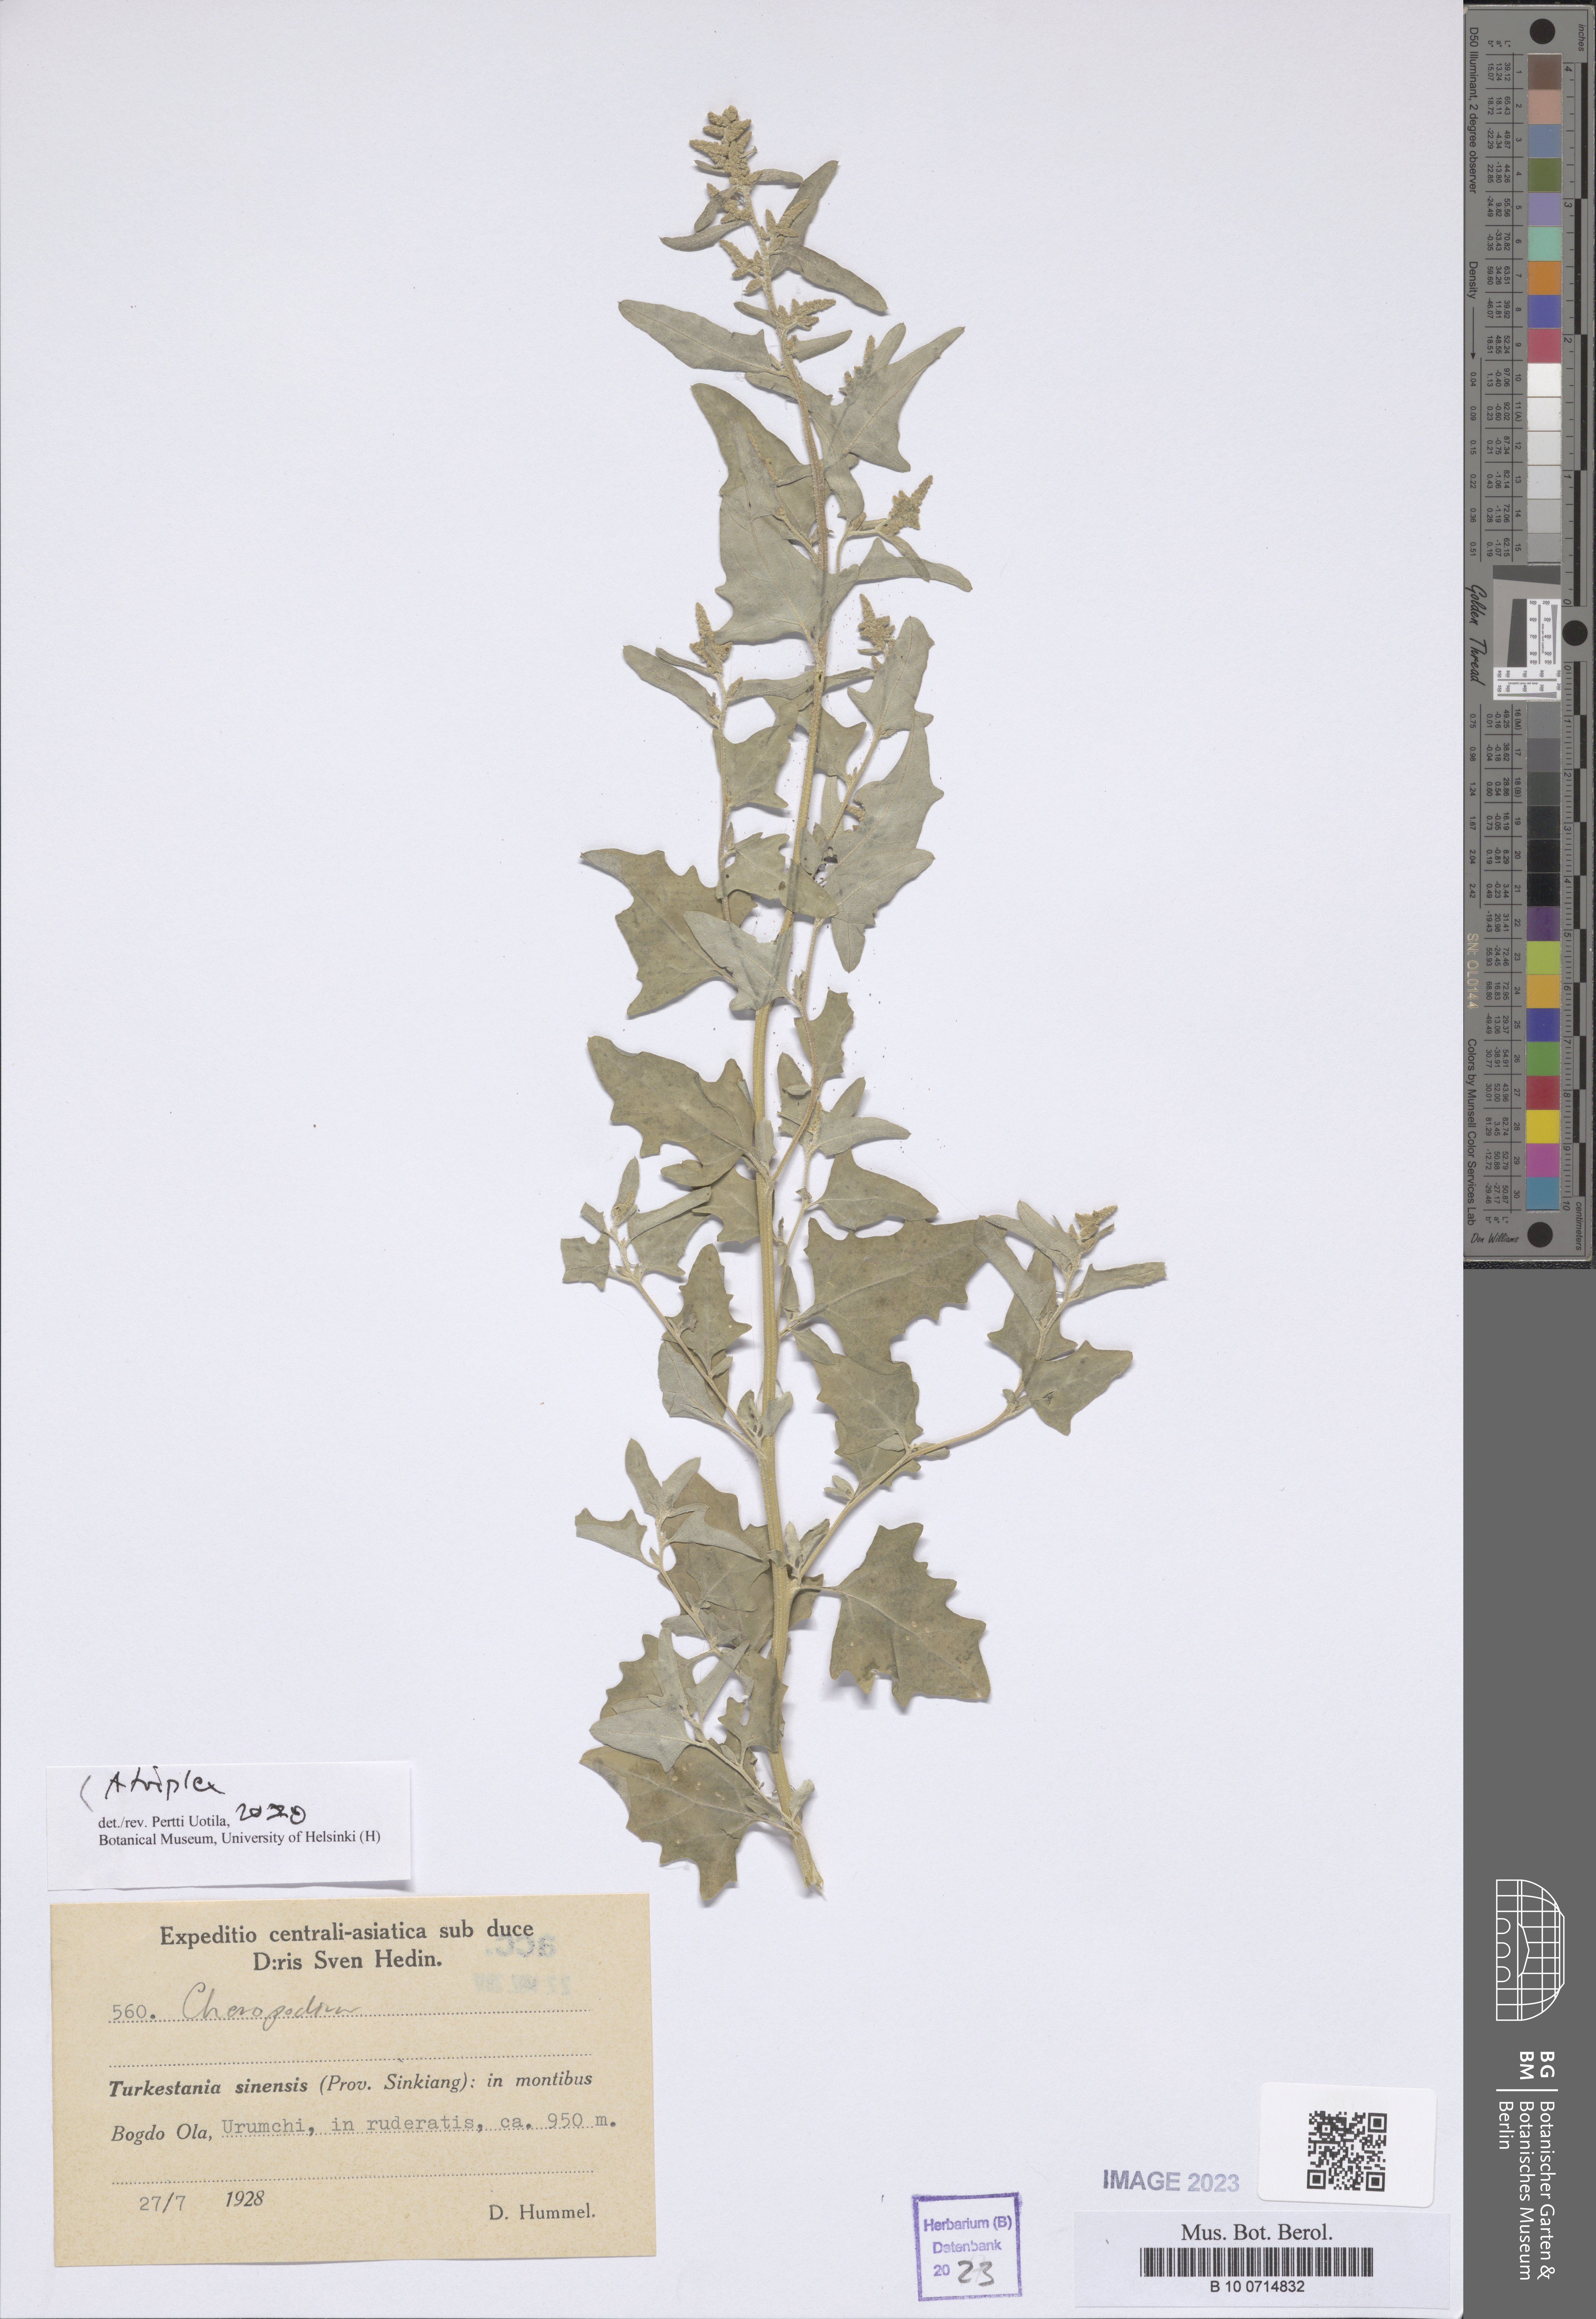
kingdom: Plantae
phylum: Tracheophyta
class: Magnoliopsida
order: Caryophyllales
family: Amaranthaceae
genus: Atriplex
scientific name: Atriplex
